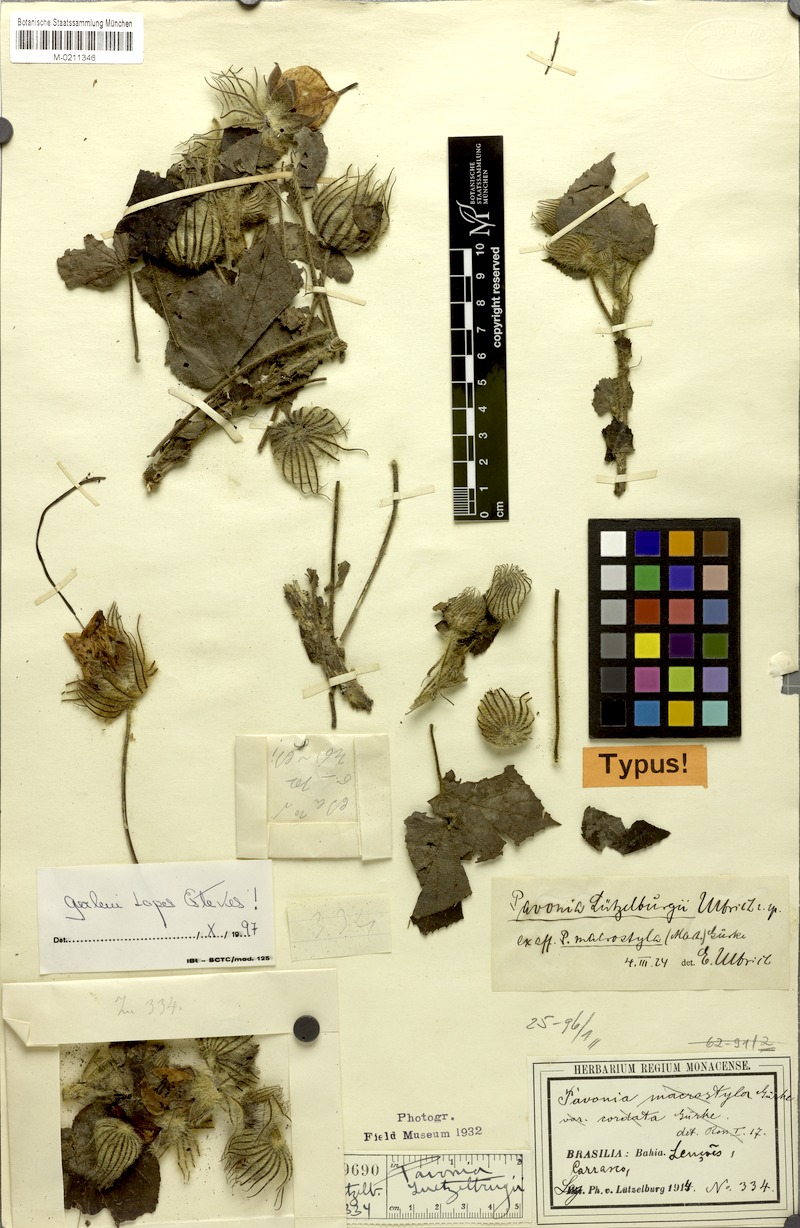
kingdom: Plantae
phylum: Tracheophyta
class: Magnoliopsida
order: Malvales
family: Malvaceae
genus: Pavonia
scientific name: Pavonia luetzelburgii
